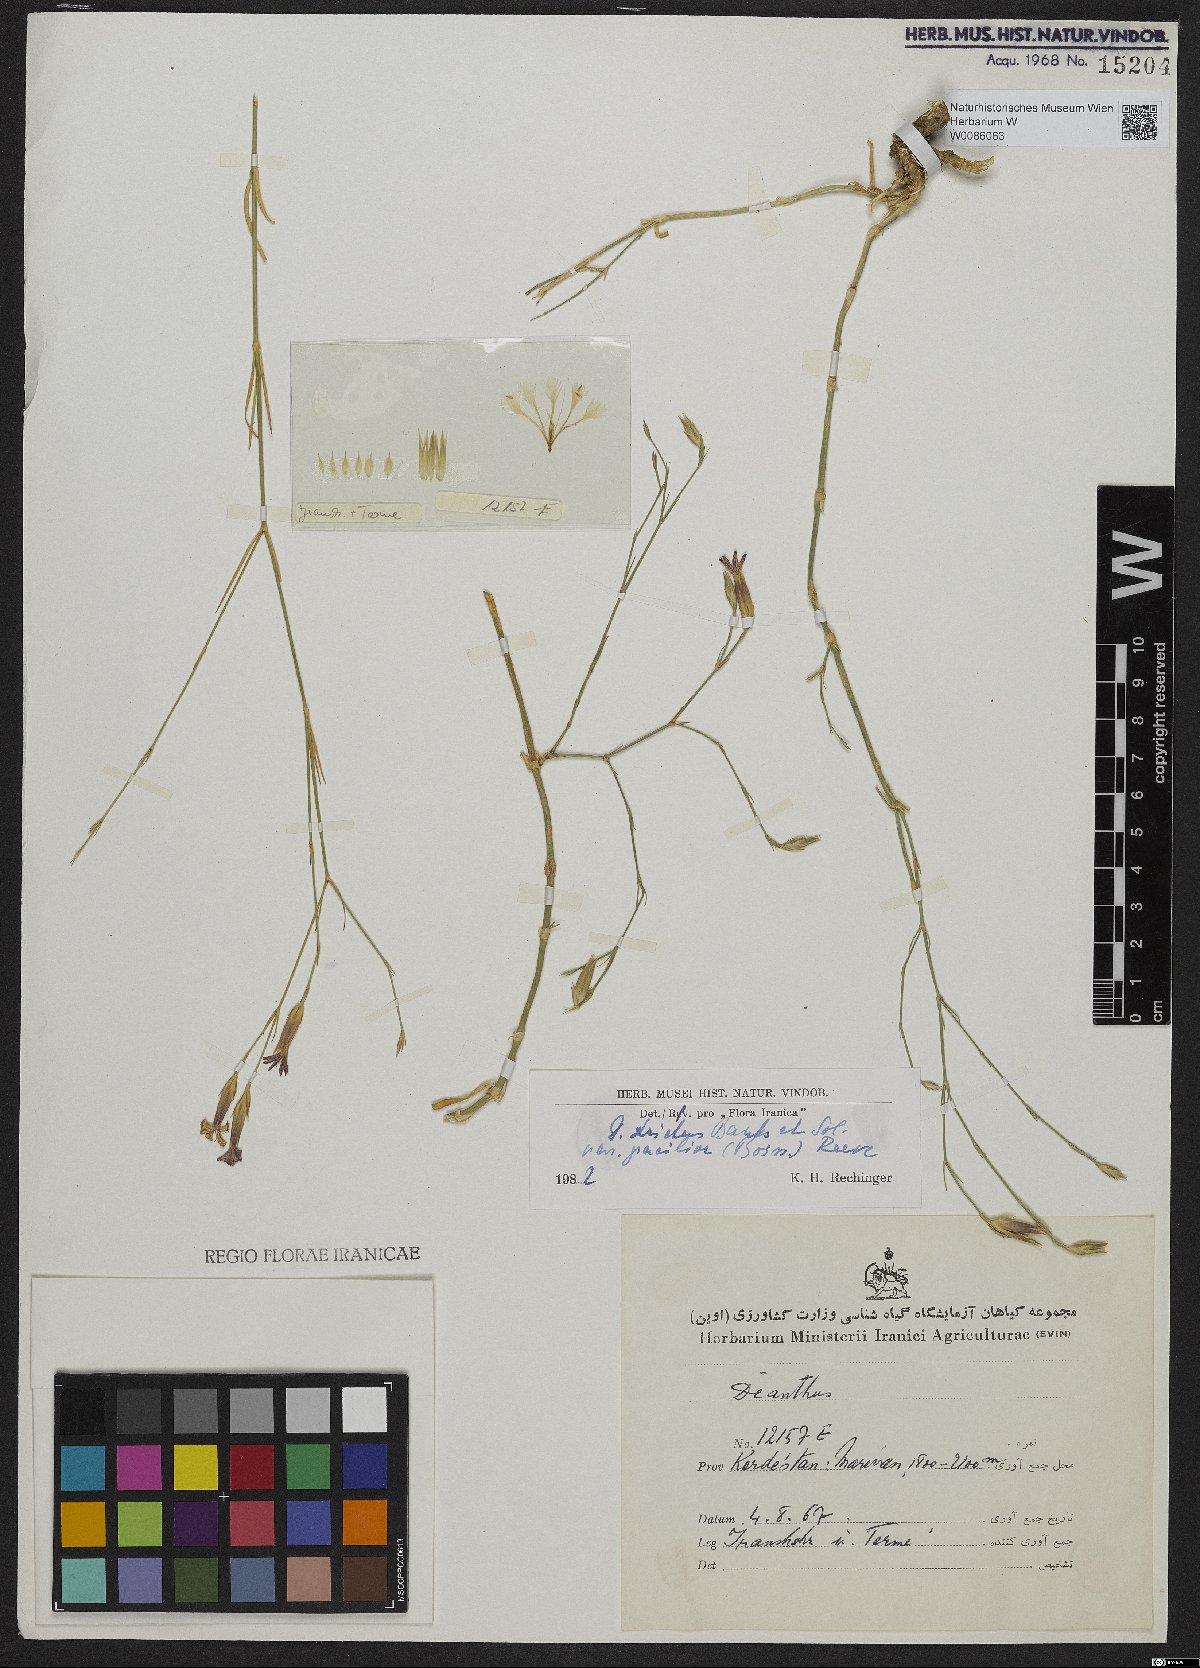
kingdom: Plantae
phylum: Tracheophyta
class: Magnoliopsida
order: Caryophyllales
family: Caryophyllaceae
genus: Dianthus
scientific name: Dianthus strictus
